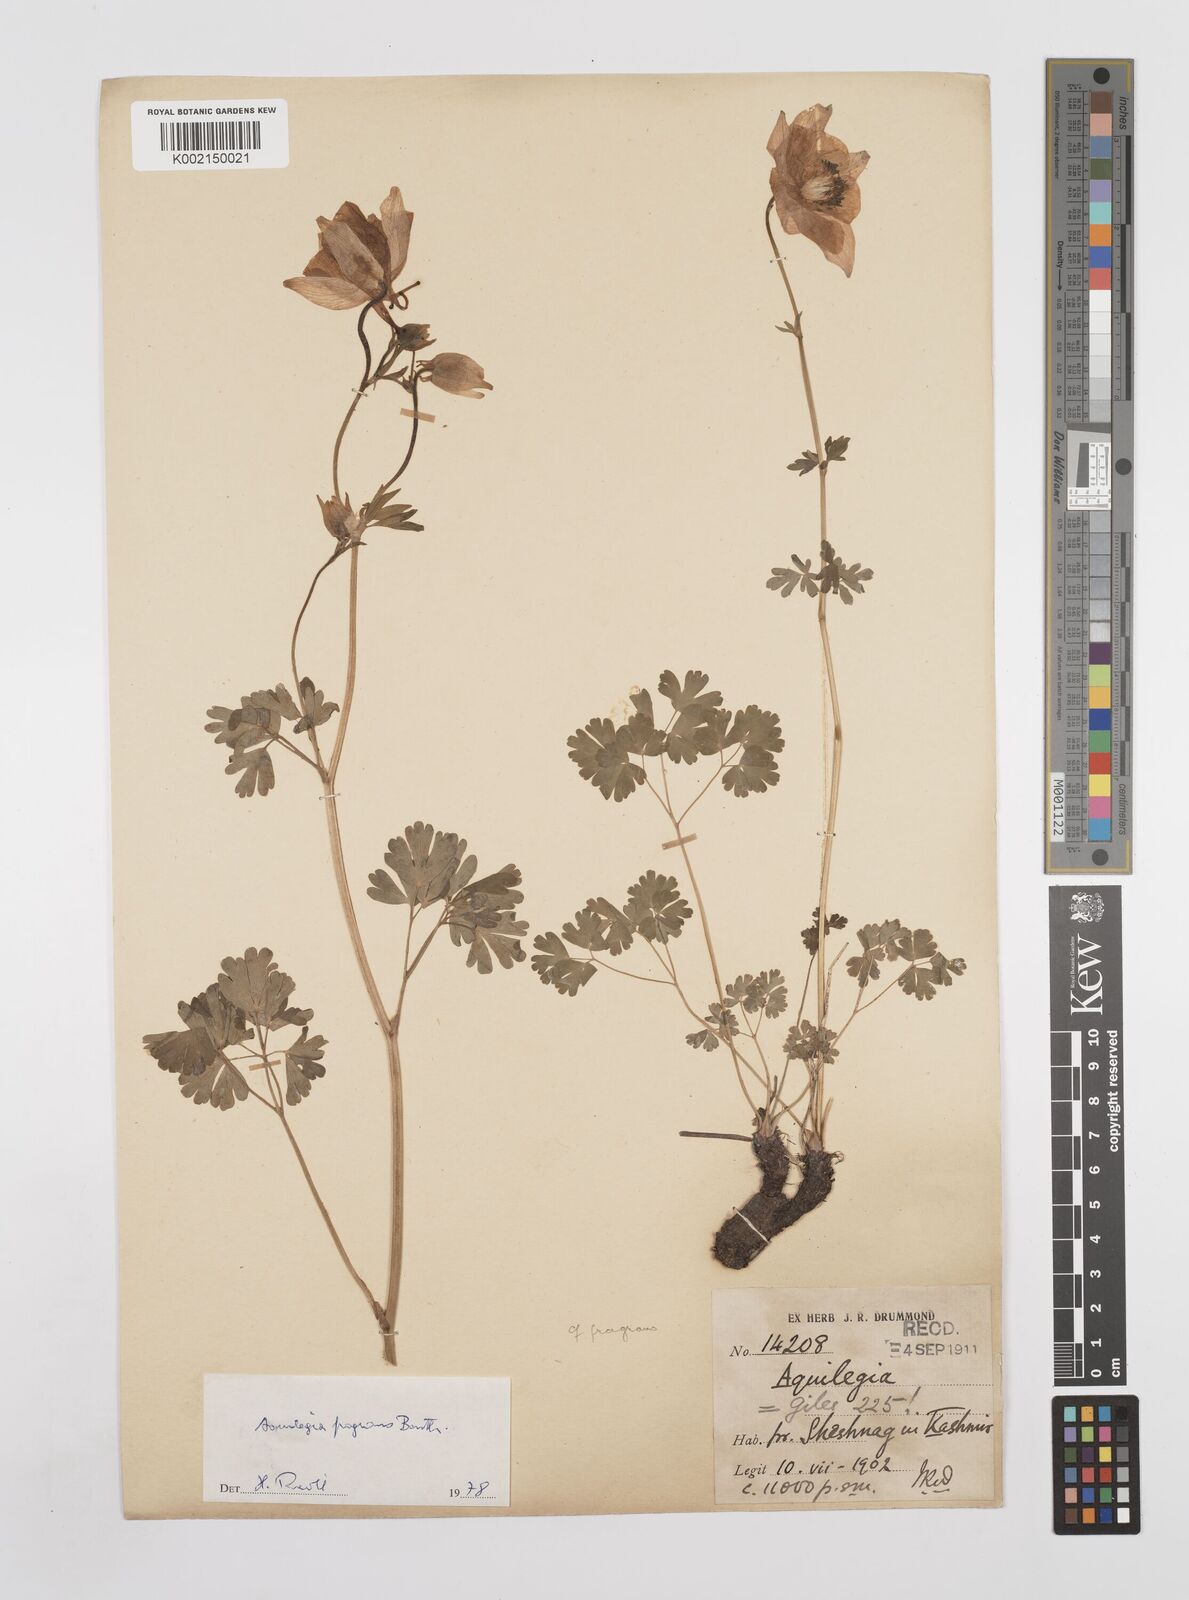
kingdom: Plantae
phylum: Tracheophyta
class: Magnoliopsida
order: Ranunculales
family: Ranunculaceae
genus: Aquilegia
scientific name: Aquilegia fragrans
